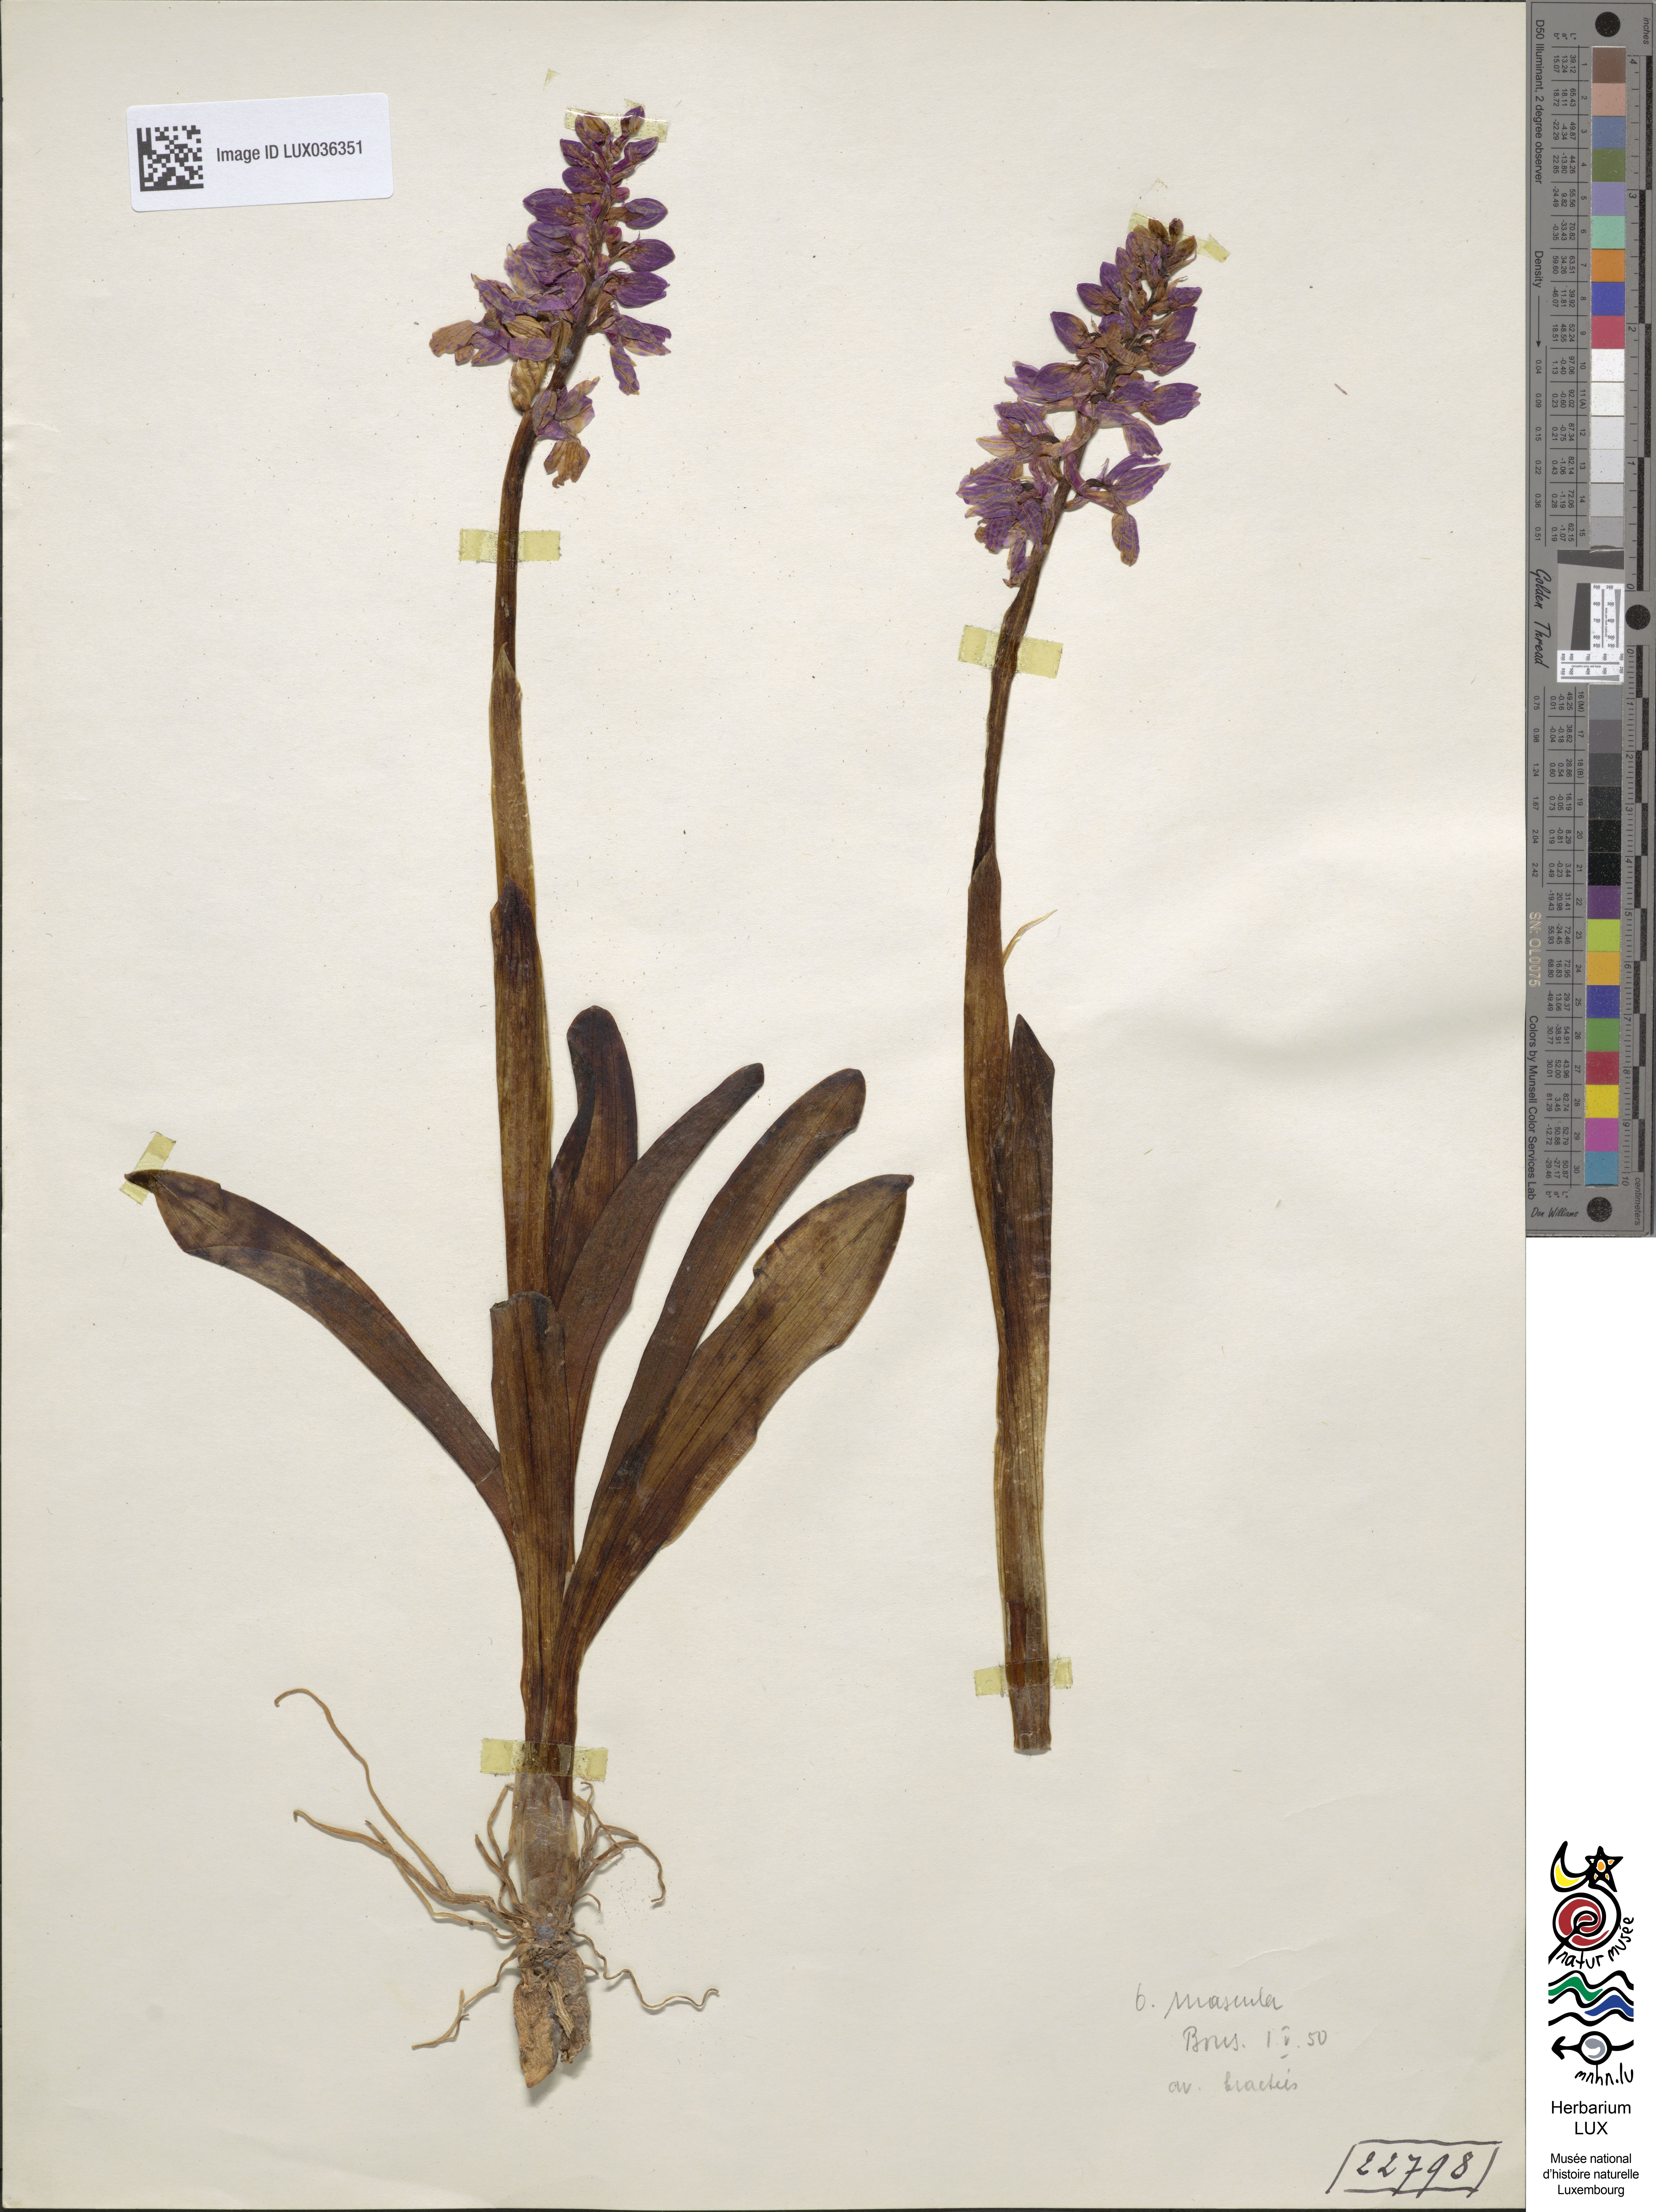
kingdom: Plantae
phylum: Tracheophyta
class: Liliopsida
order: Asparagales
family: Orchidaceae
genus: Orchis
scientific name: Orchis mascula
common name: Early-purple orchid
